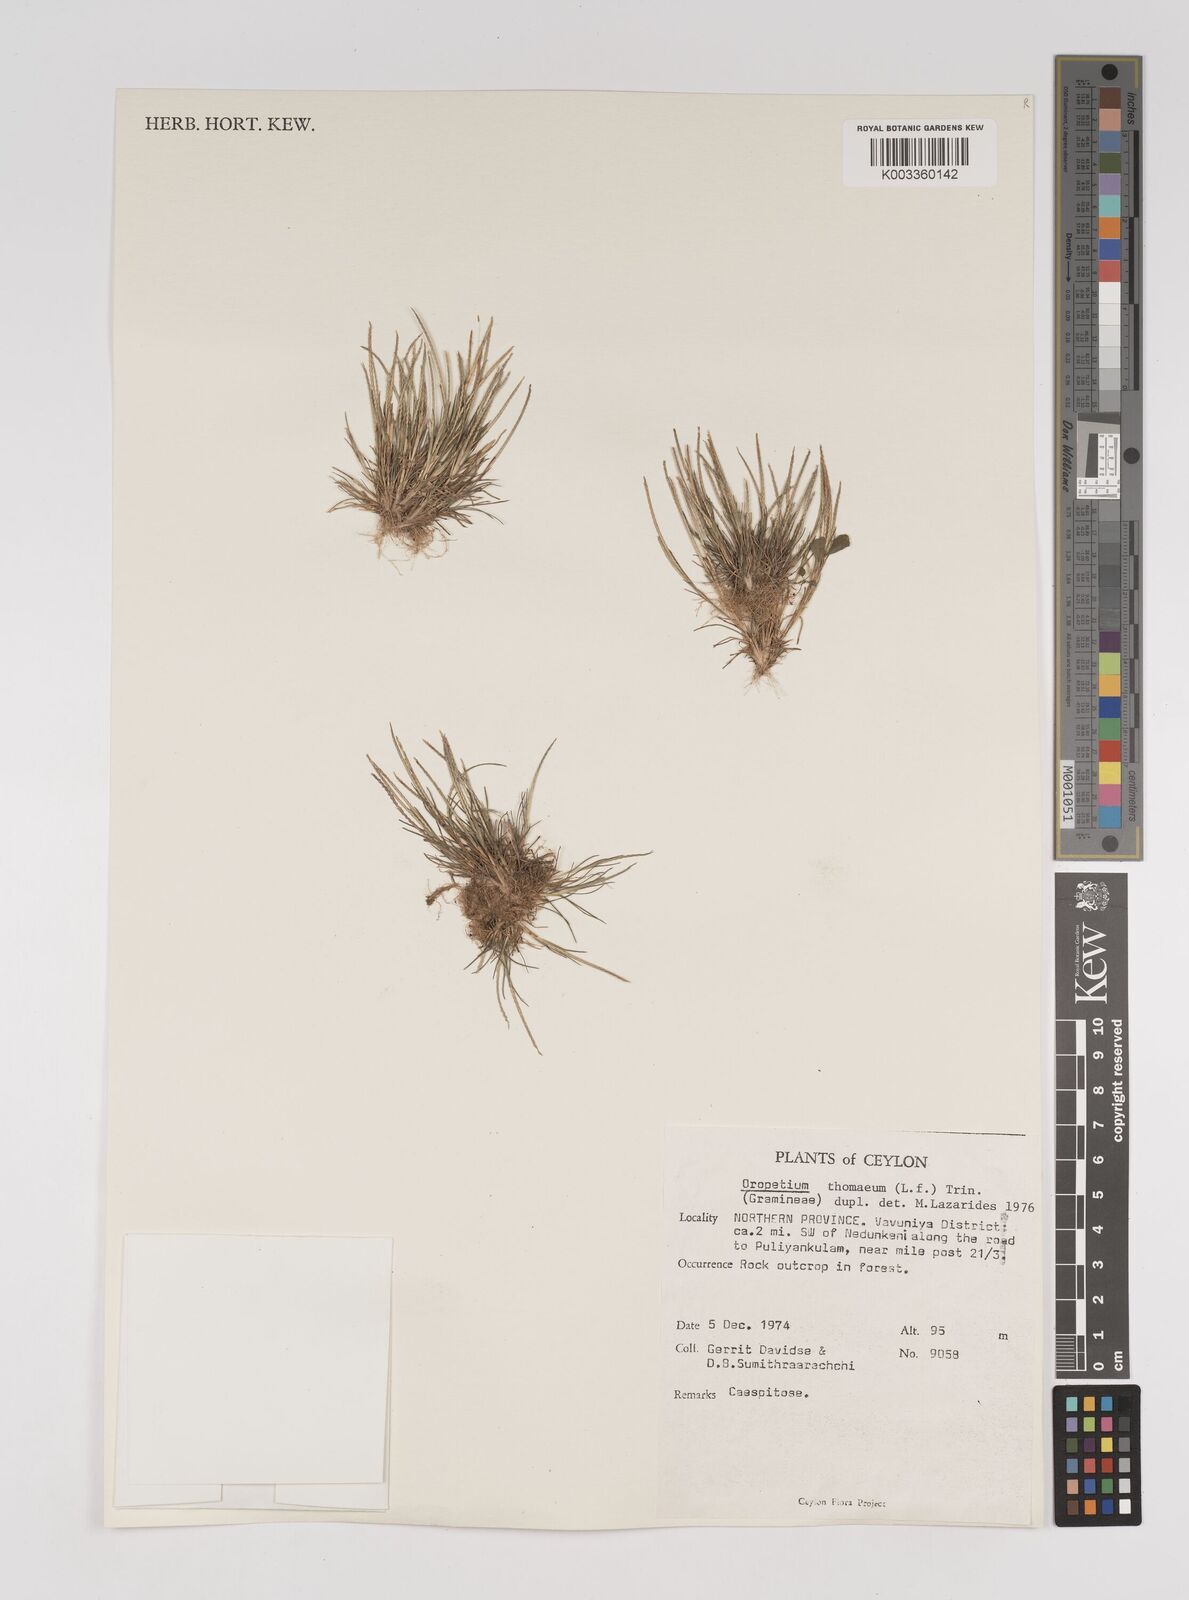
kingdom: Plantae
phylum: Tracheophyta
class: Liliopsida
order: Poales
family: Poaceae
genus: Oropetium
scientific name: Oropetium thomaeum
